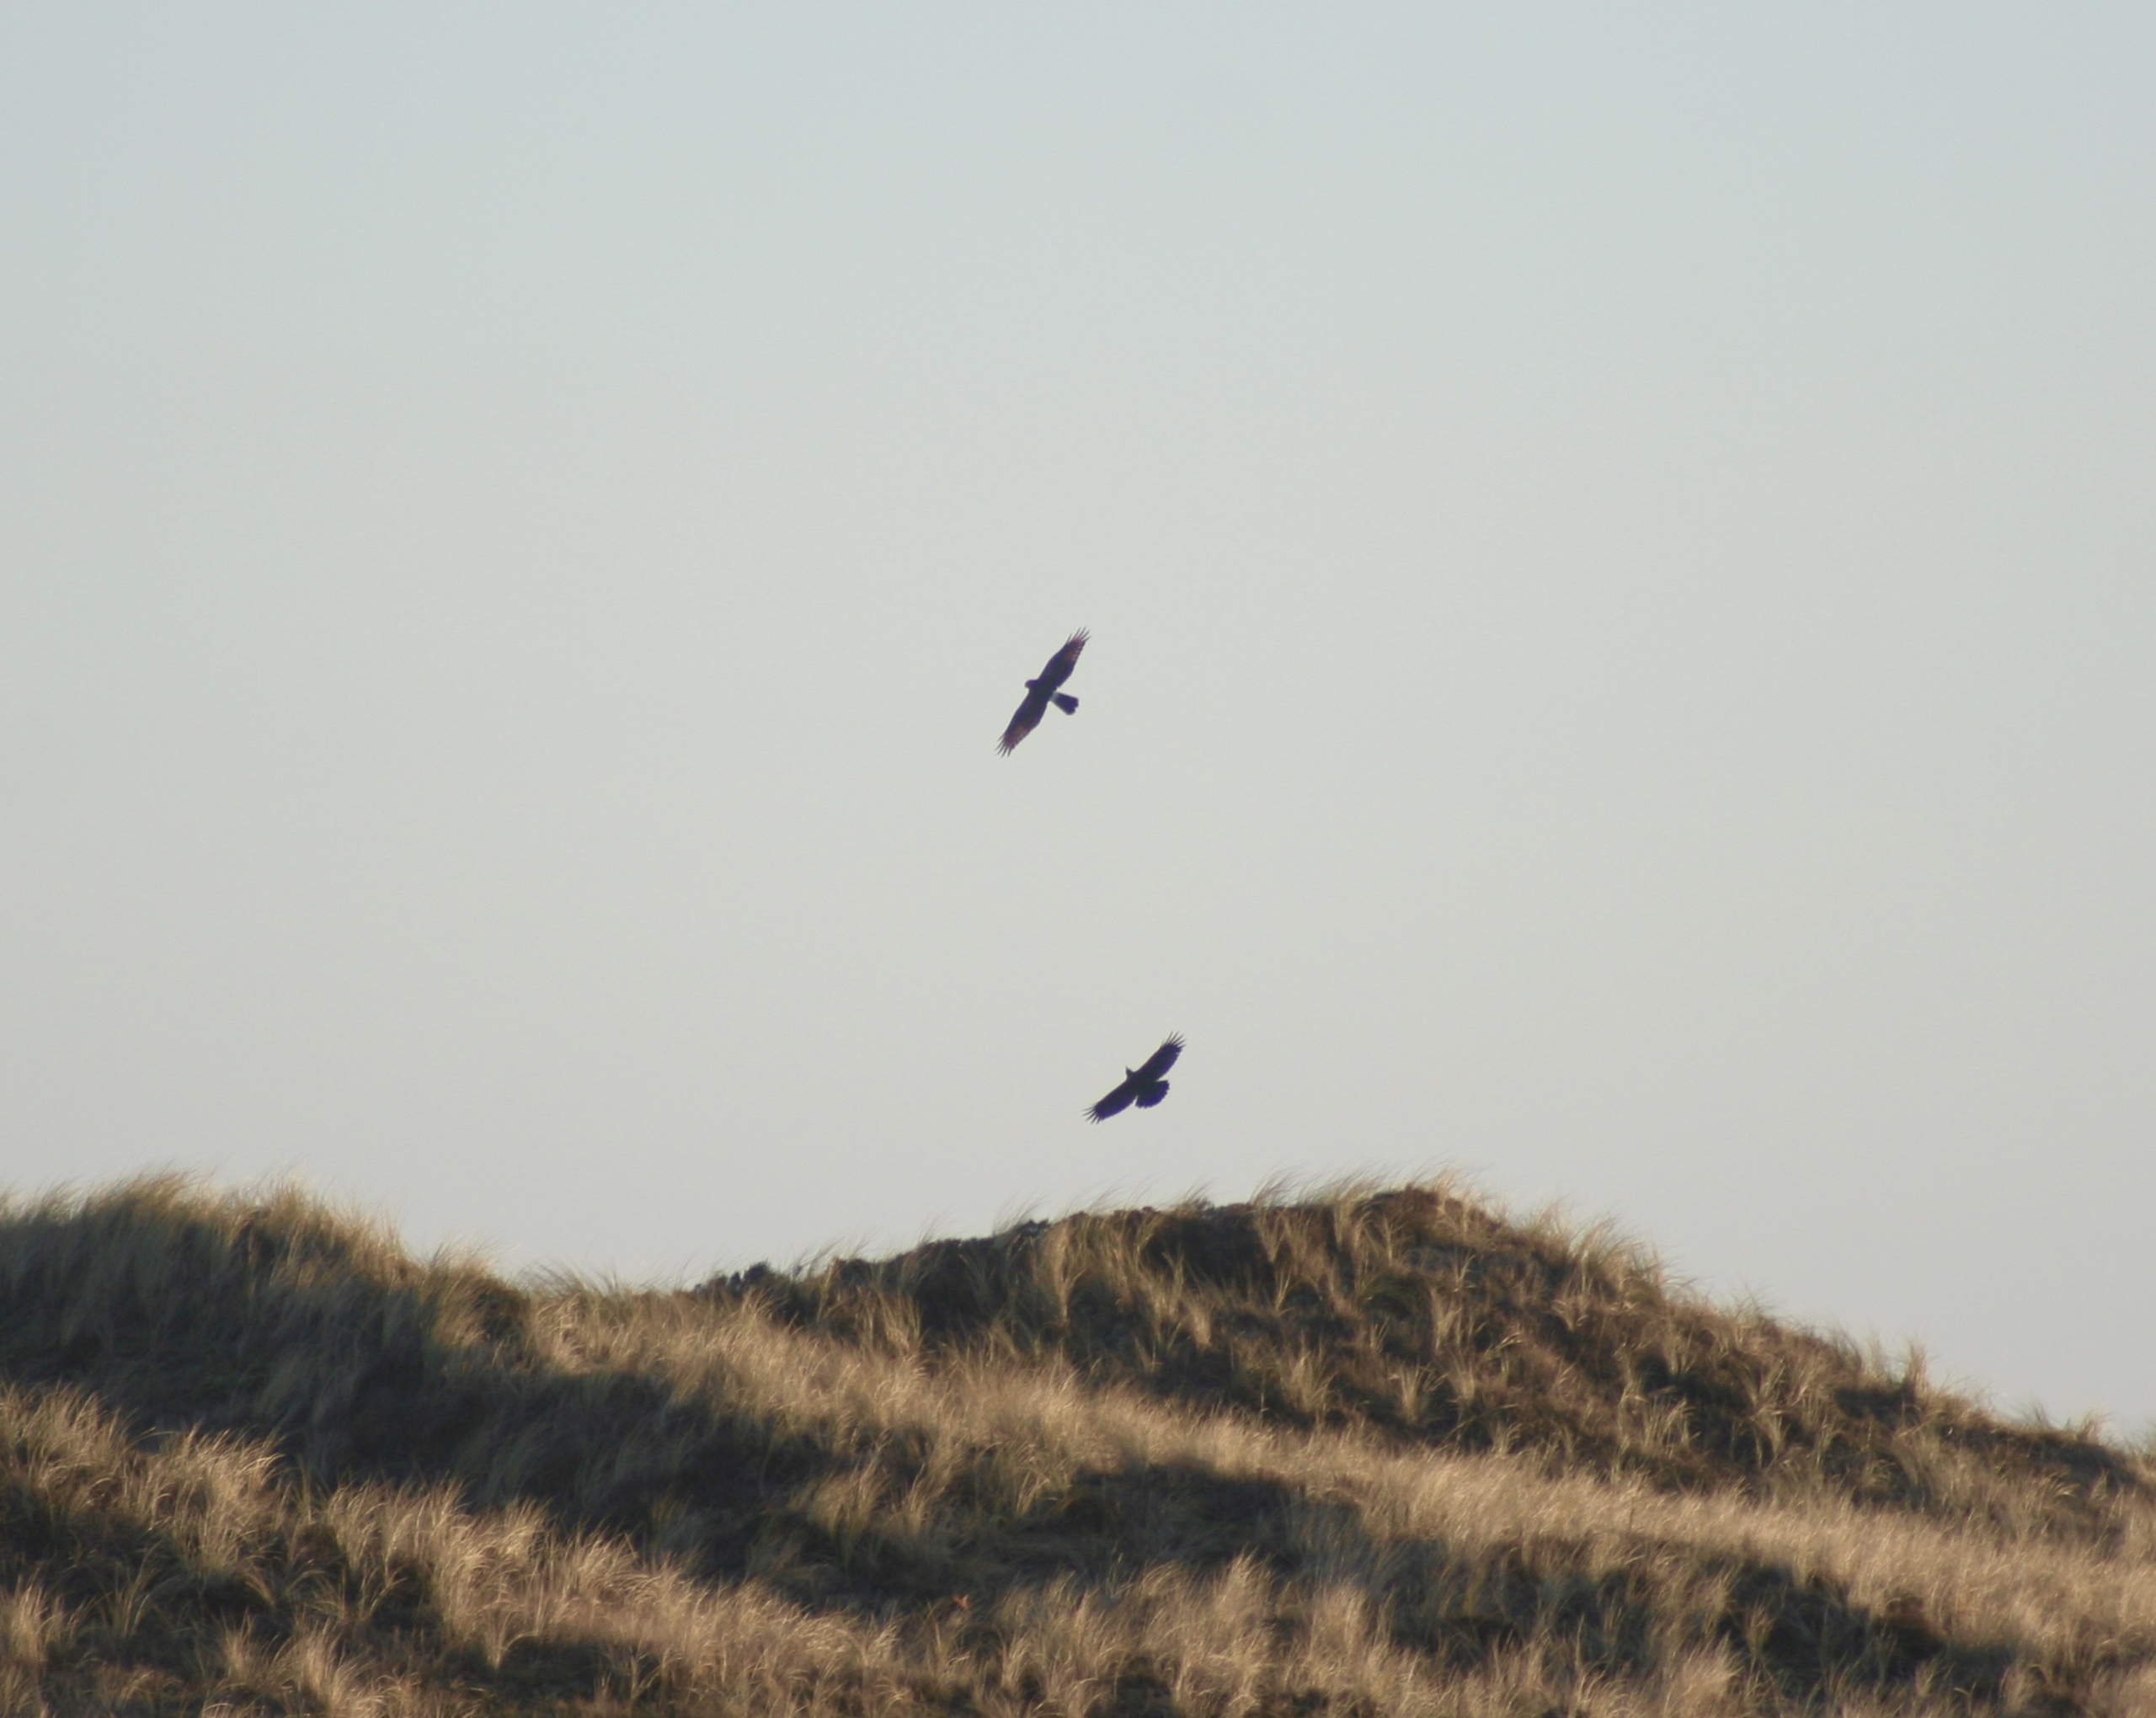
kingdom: Animalia
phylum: Chordata
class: Aves
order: Accipitriformes
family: Accipitridae
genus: Circus
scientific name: Circus cyaneus
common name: Blå kærhøg
